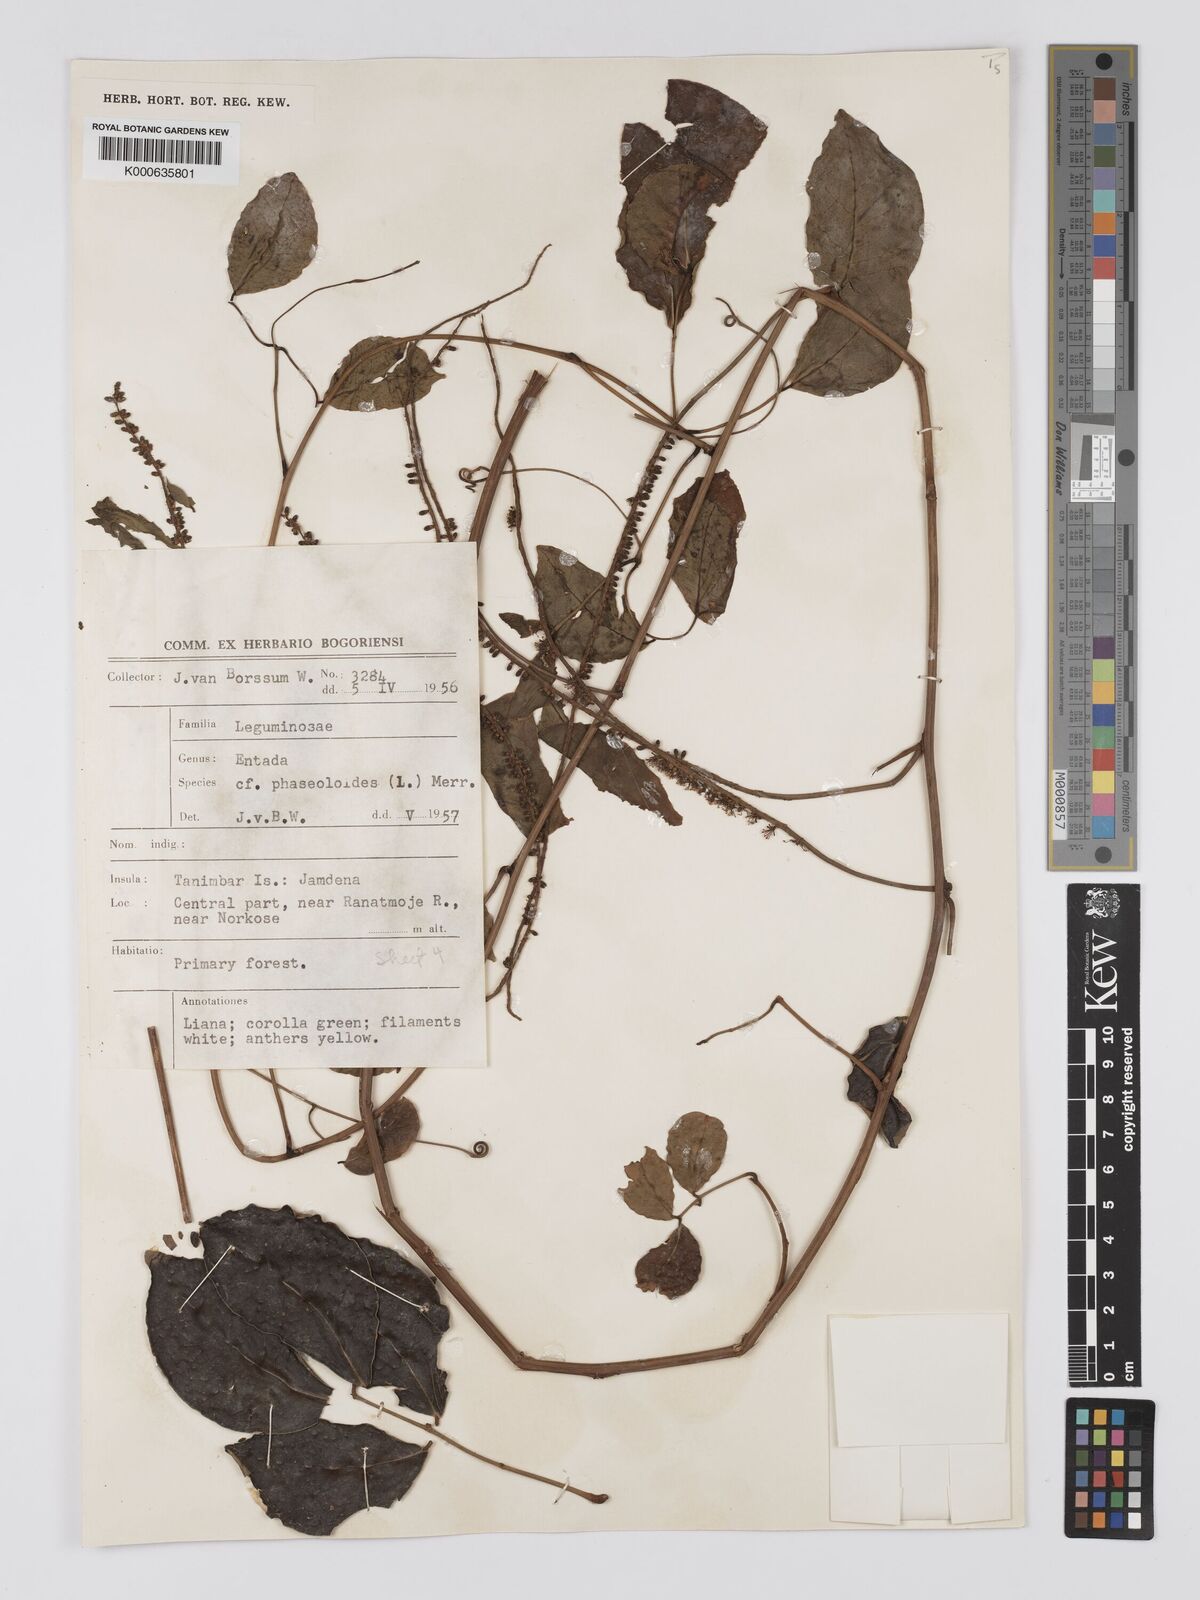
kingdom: Plantae
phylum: Tracheophyta
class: Magnoliopsida
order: Fabales
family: Fabaceae
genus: Entada
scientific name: Entada phaseoloides
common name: Matchbox-bean
